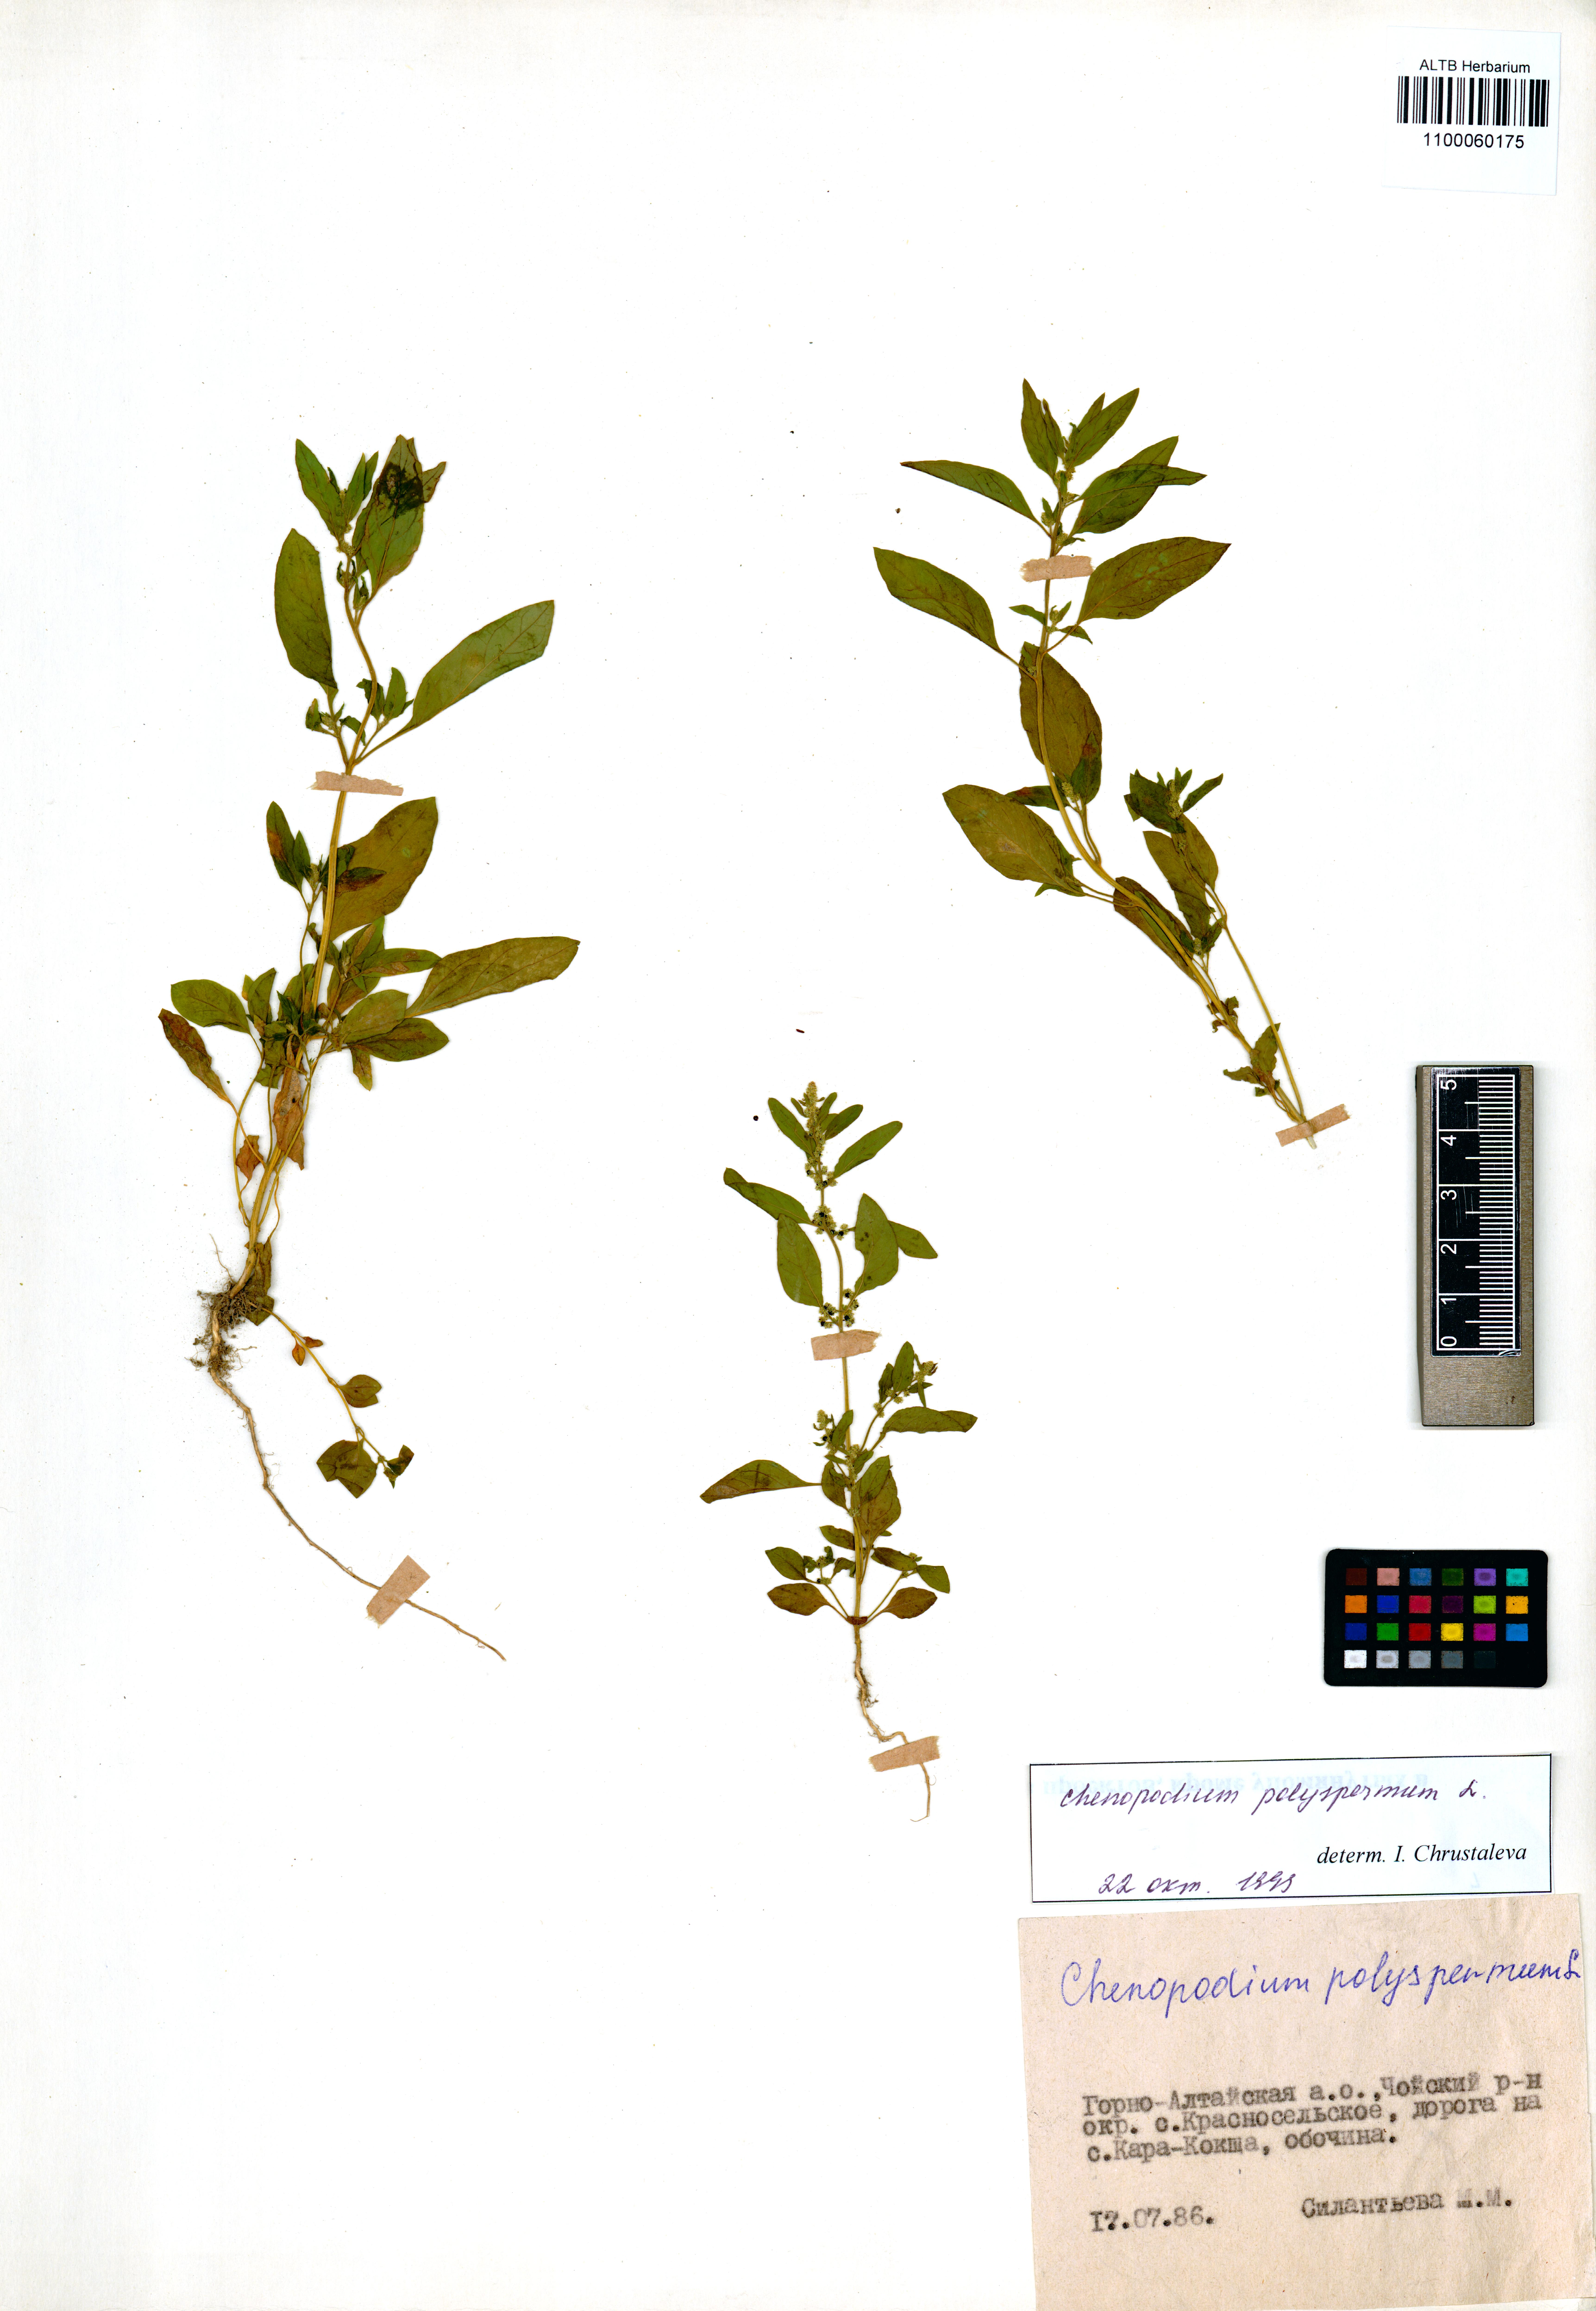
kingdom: Plantae
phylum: Tracheophyta
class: Magnoliopsida
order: Caryophyllales
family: Amaranthaceae
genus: Lipandra
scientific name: Lipandra polysperma
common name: Many-seed goosefoot
